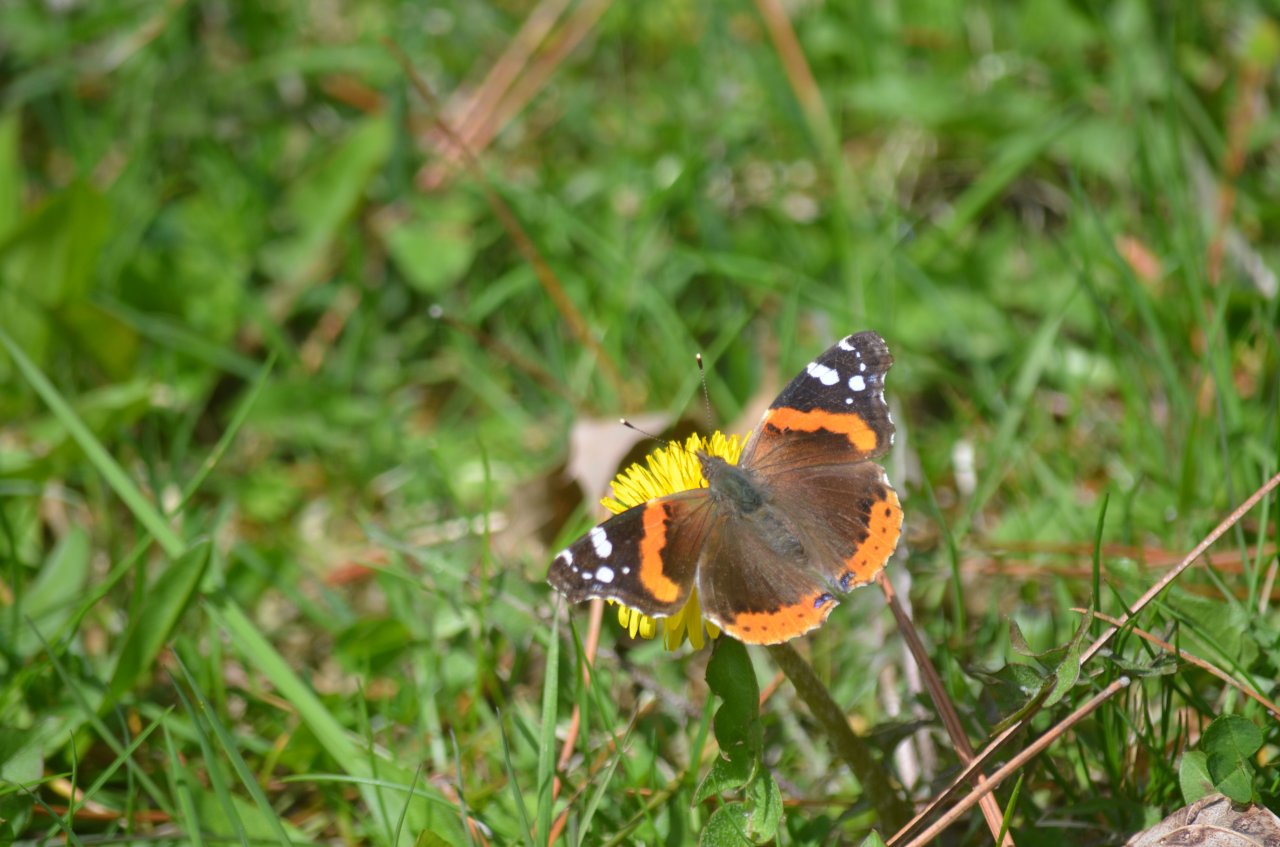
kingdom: Animalia
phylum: Arthropoda
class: Insecta
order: Lepidoptera
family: Nymphalidae
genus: Vanessa
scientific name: Vanessa atalanta
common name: Red Admiral
